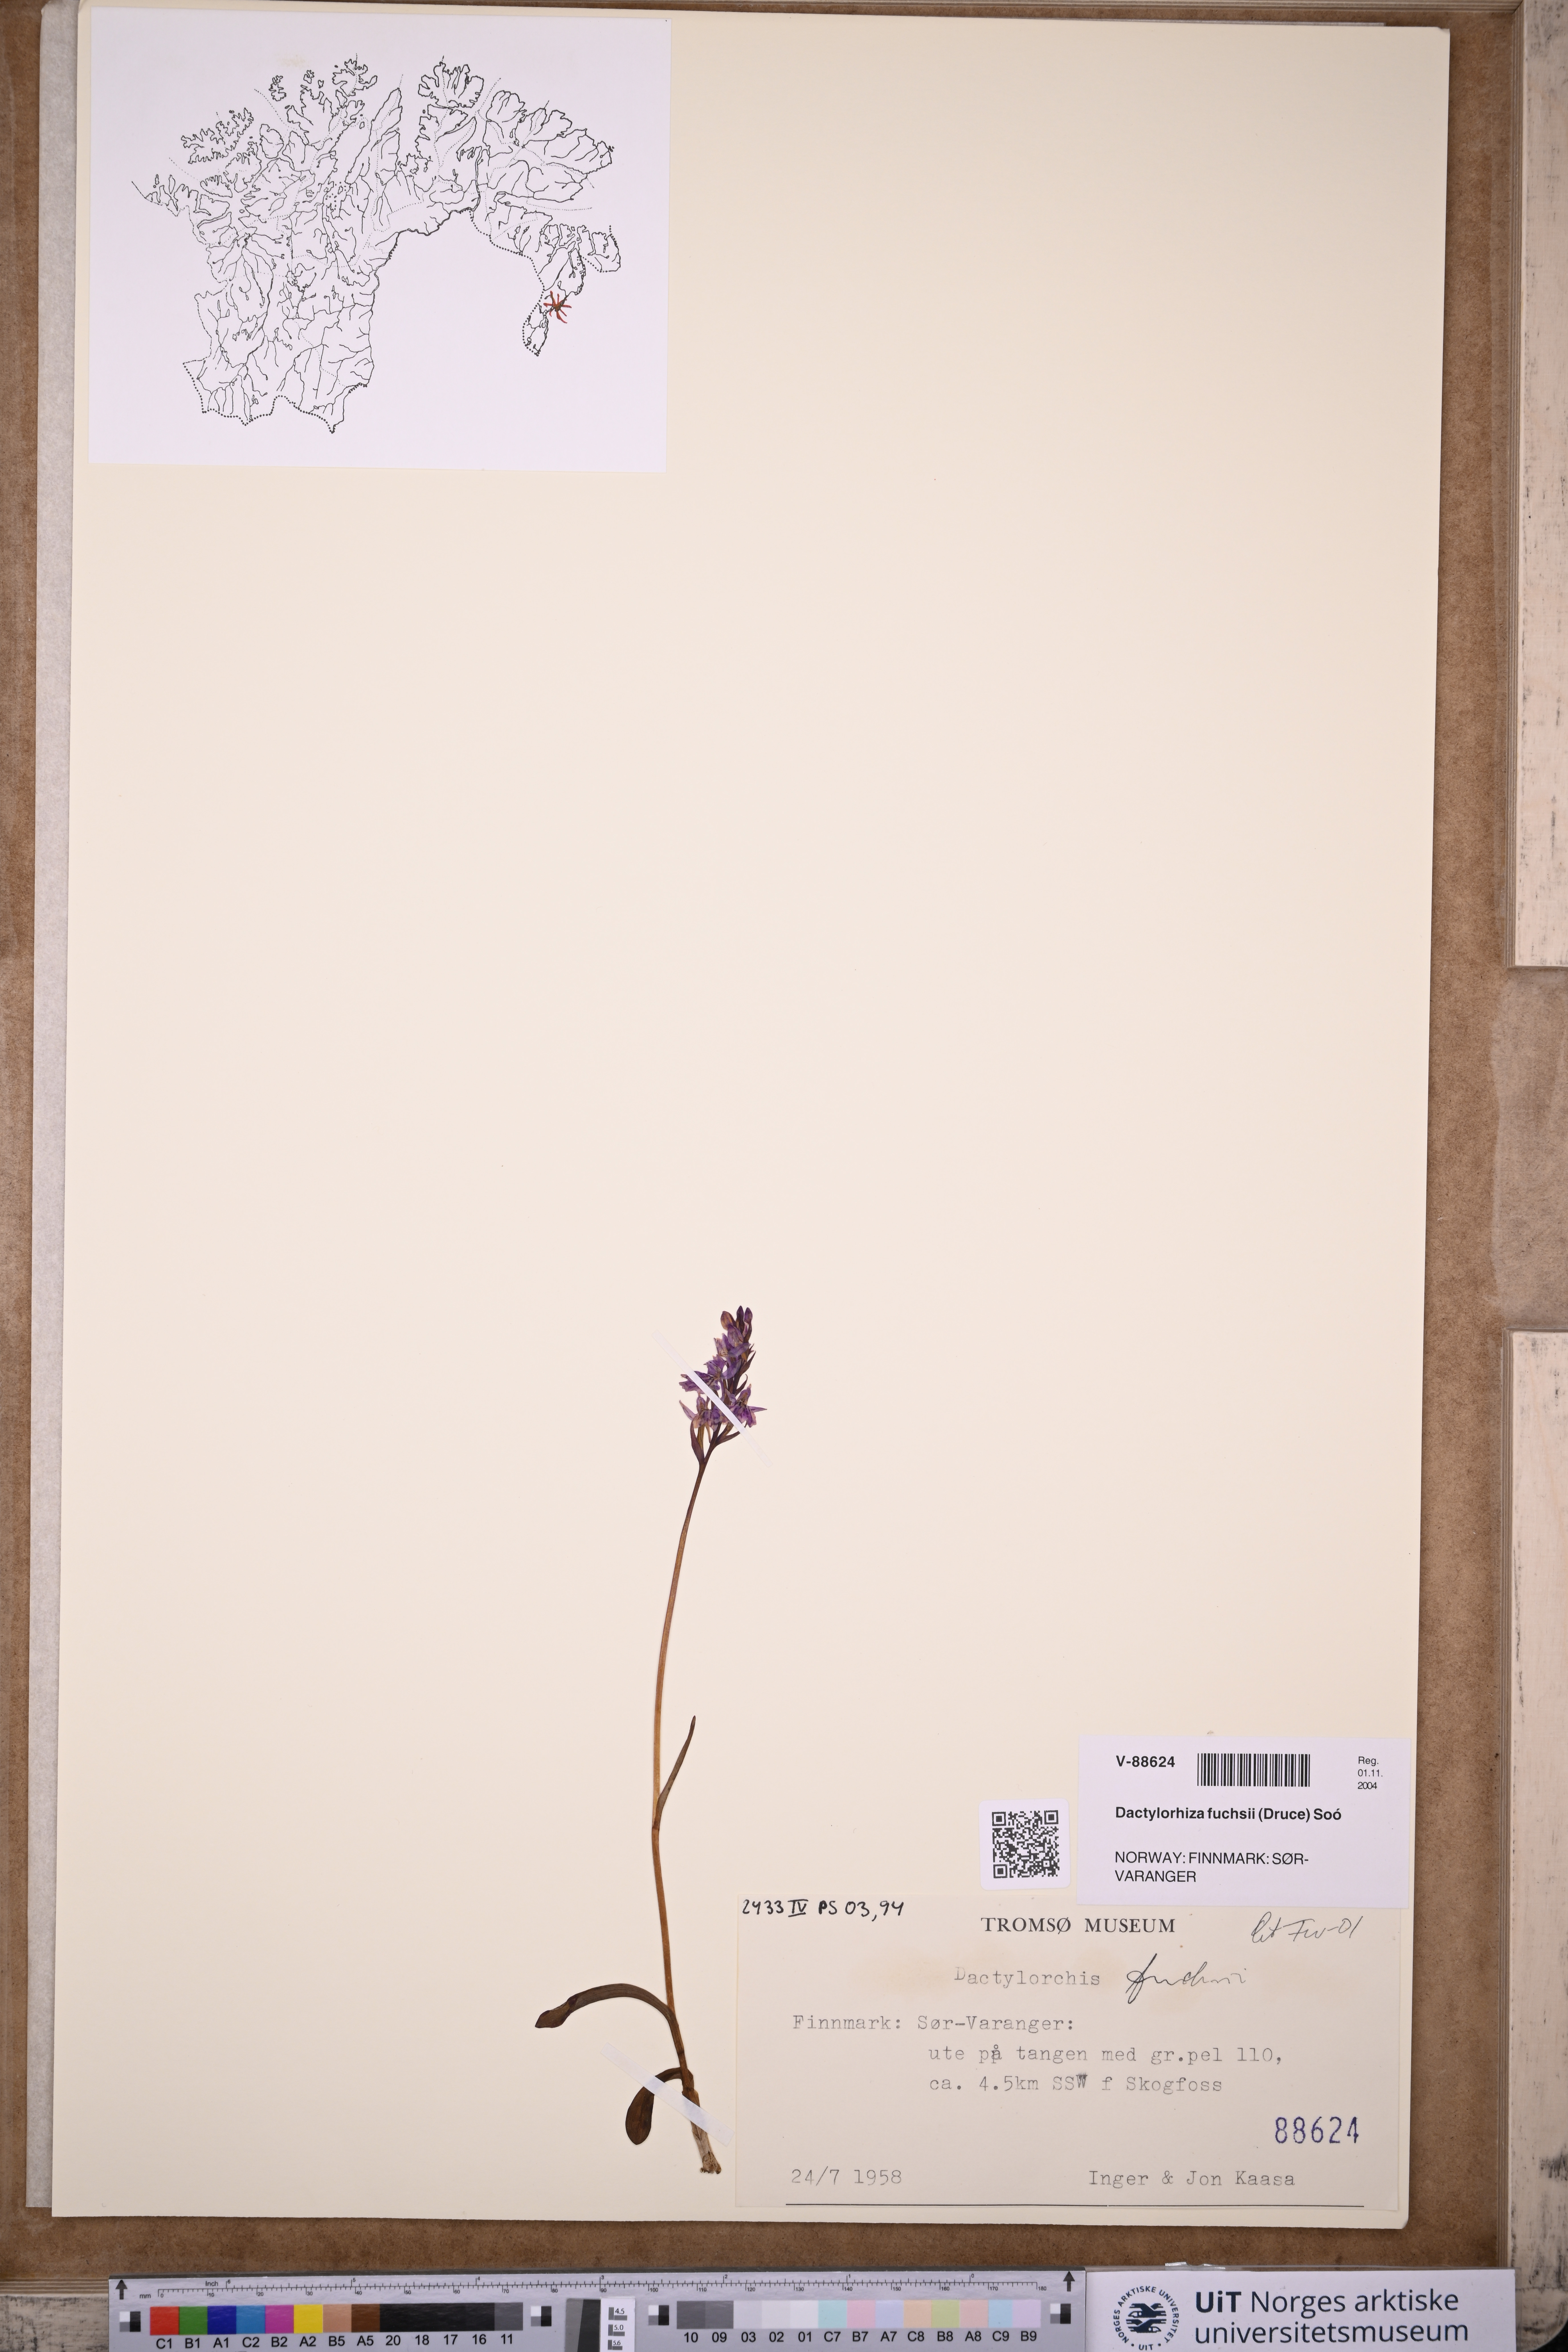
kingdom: Plantae
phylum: Tracheophyta
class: Liliopsida
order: Asparagales
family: Orchidaceae
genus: Dactylorhiza
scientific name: Dactylorhiza maculata
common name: Heath spotted-orchid
